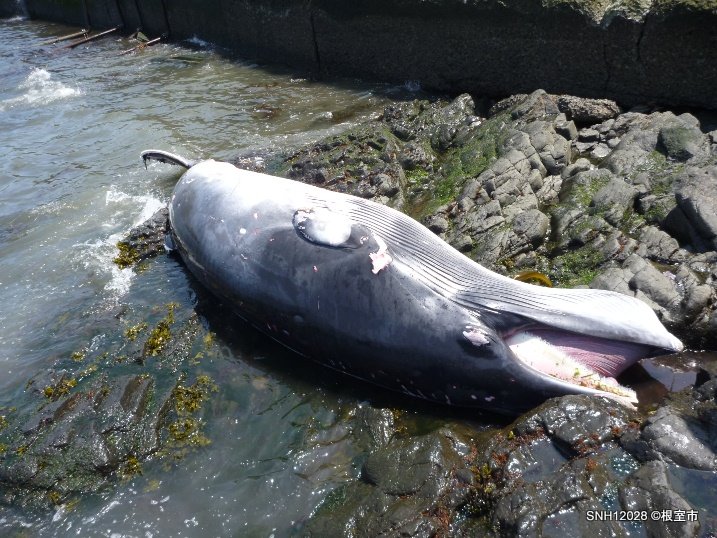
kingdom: Animalia
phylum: Chordata
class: Mammalia
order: Cetacea
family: Balaenopteridae
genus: Balaenoptera
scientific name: Balaenoptera acutorostrata
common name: Minke whale
